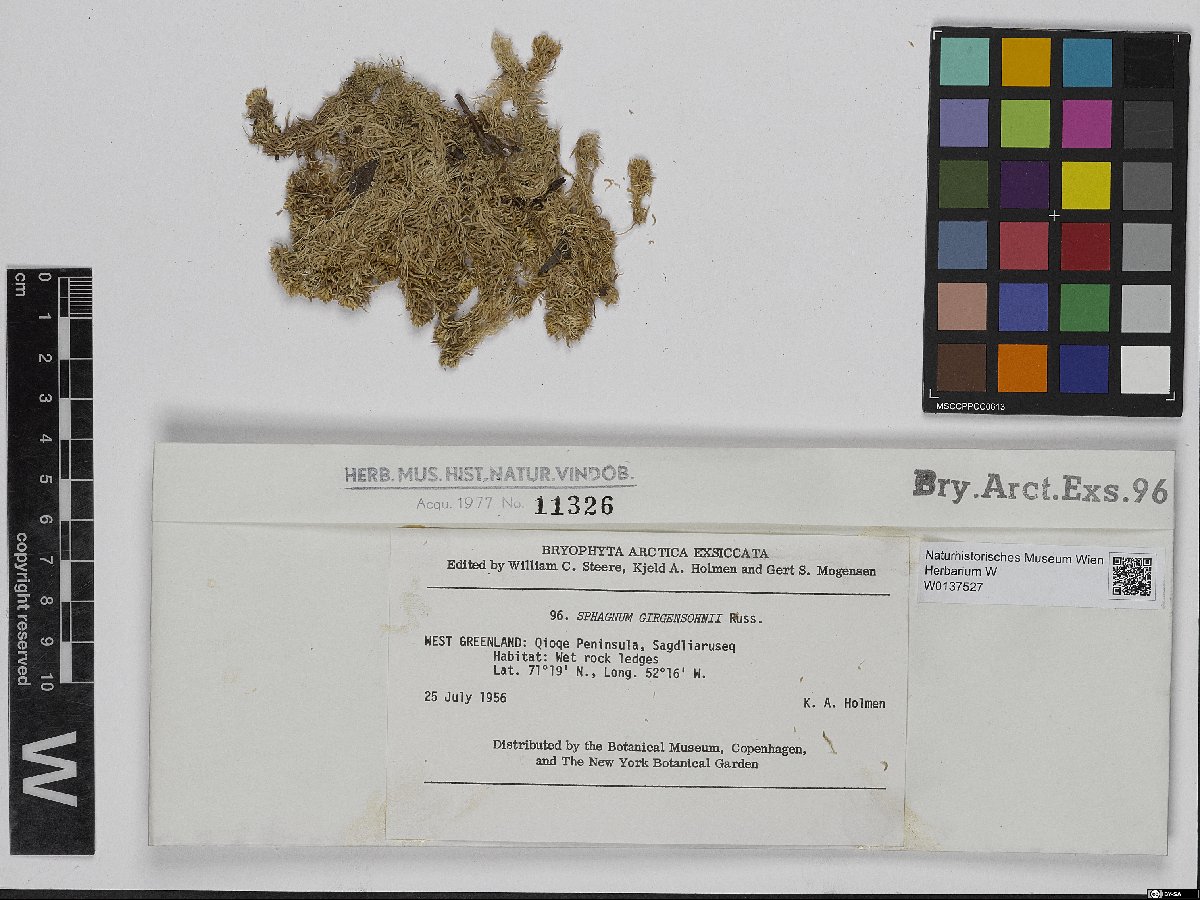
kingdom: Plantae
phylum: Bryophyta
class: Sphagnopsida
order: Sphagnales
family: Sphagnaceae
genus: Sphagnum
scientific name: Sphagnum girgensohnii
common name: Girgensohn's peat moss
